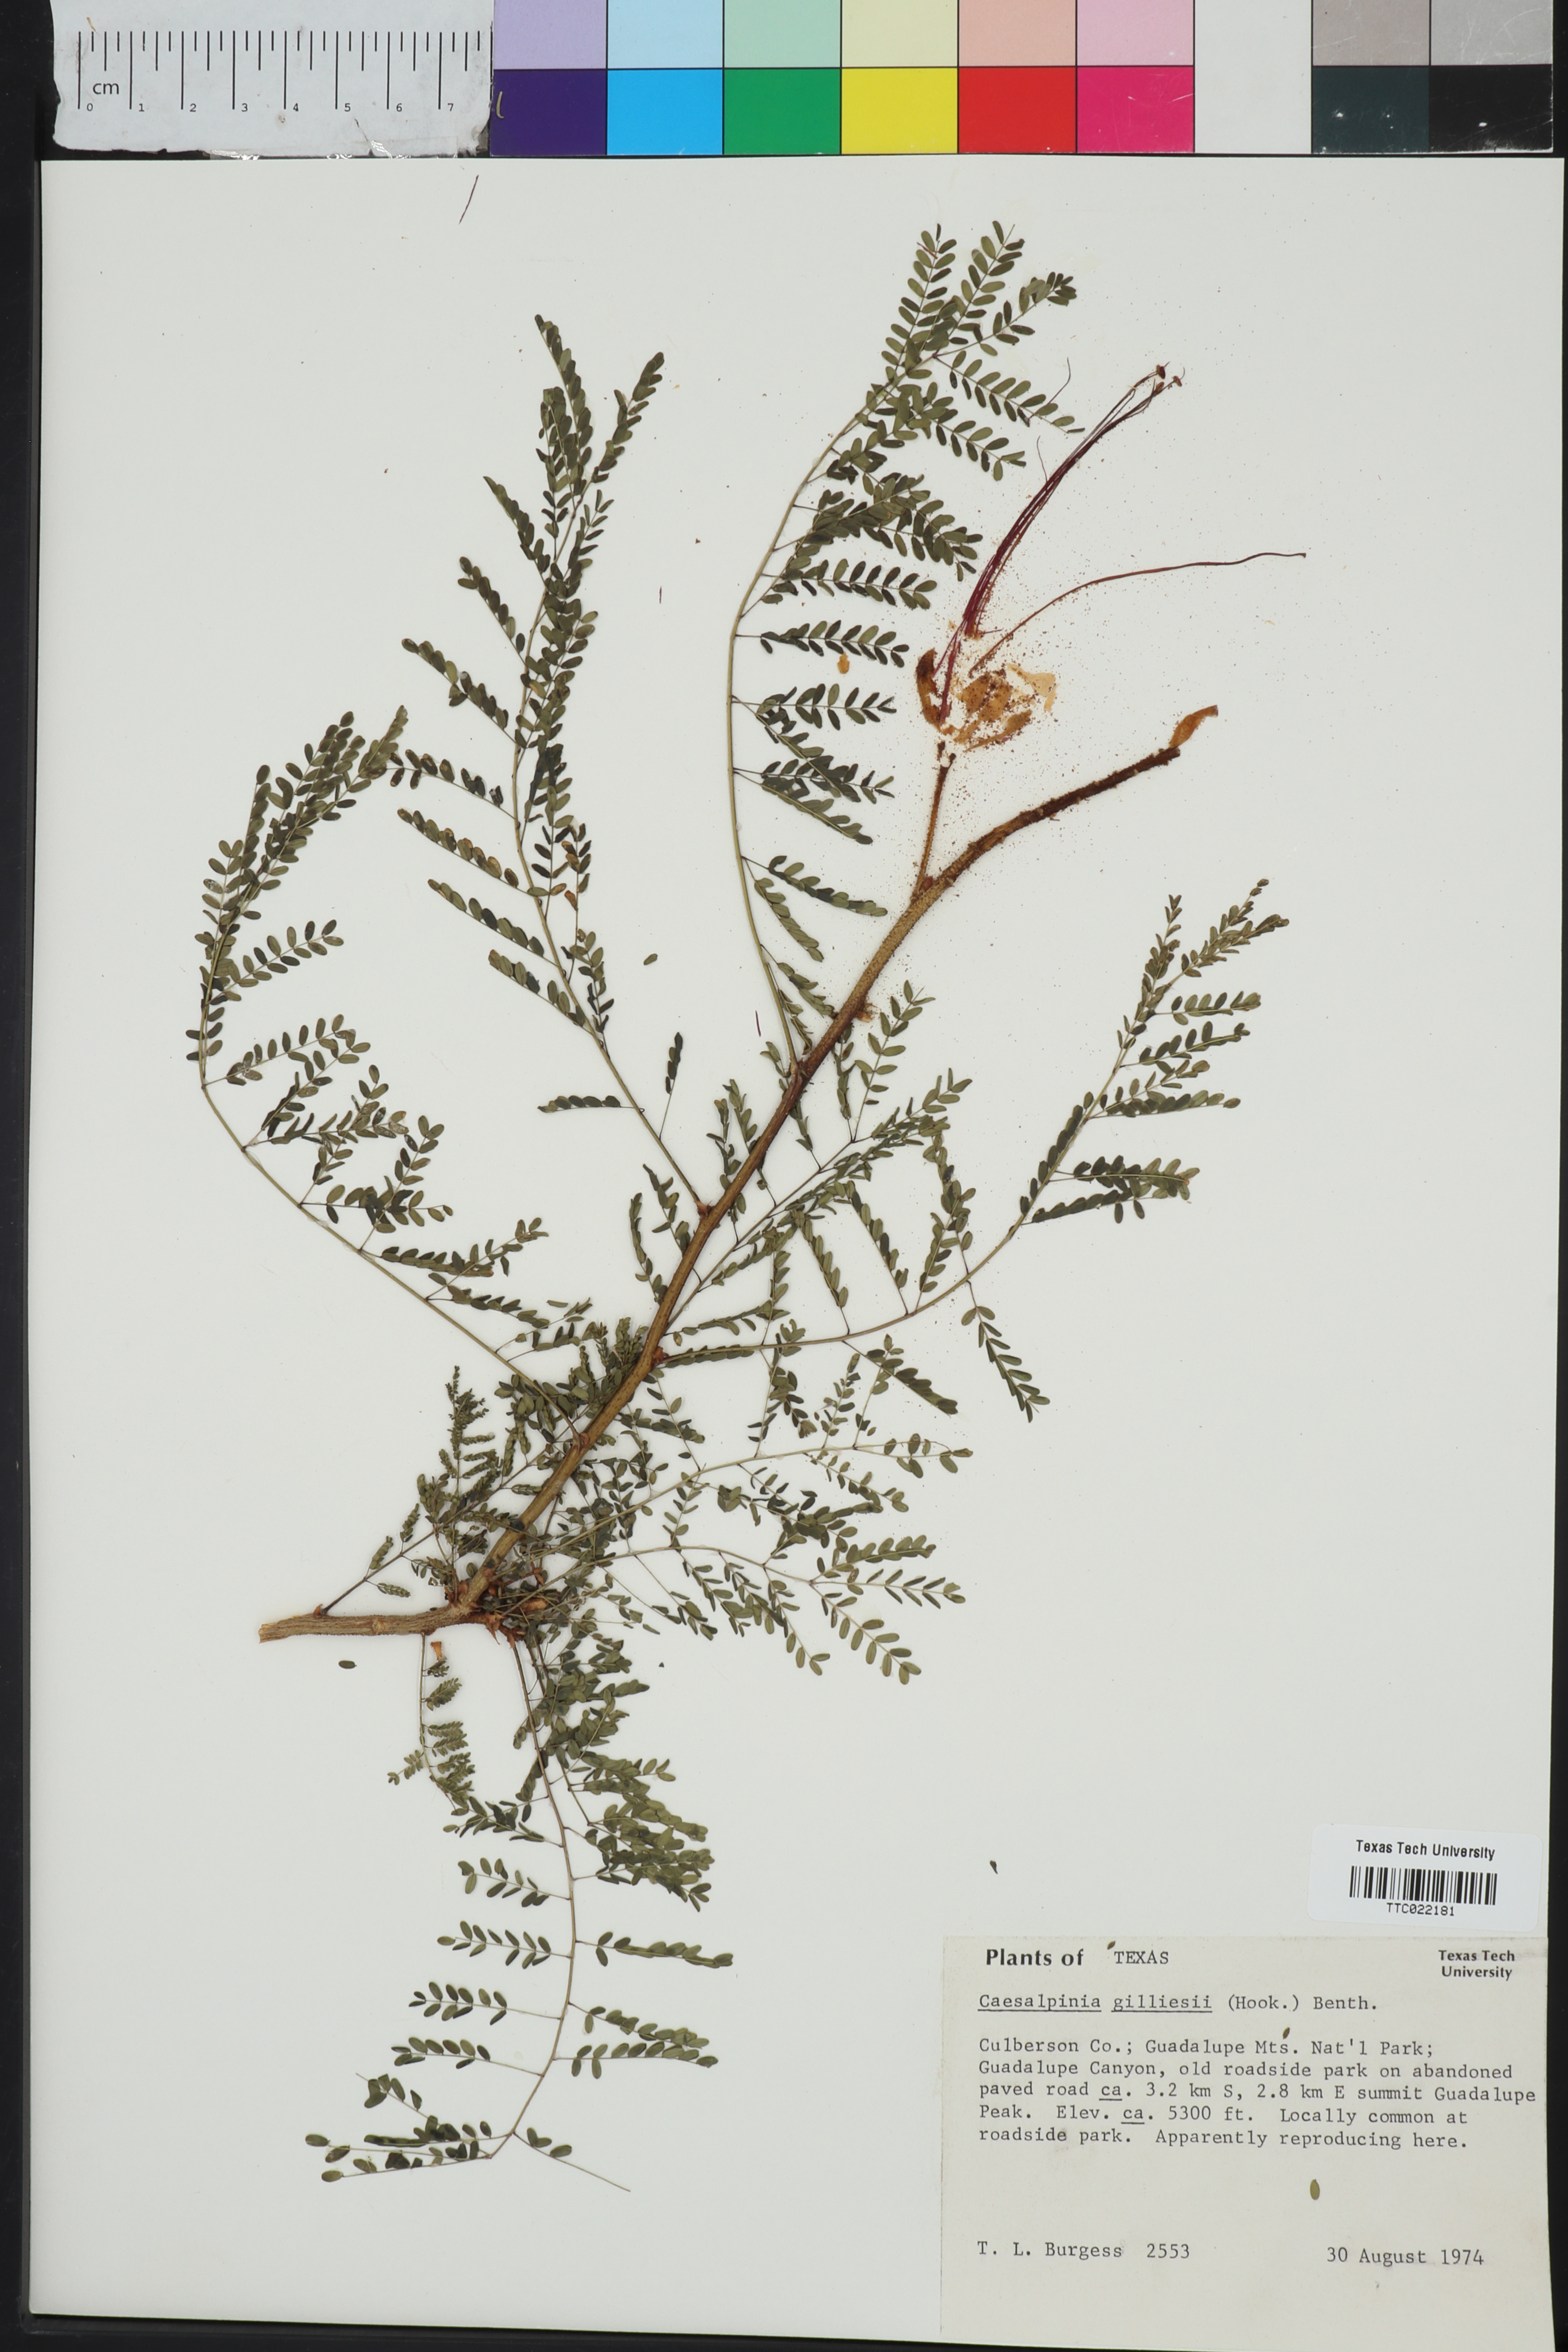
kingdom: Plantae
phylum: Tracheophyta
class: Magnoliopsida
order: Fabales
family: Fabaceae
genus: Erythrostemon
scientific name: Erythrostemon gilliesii
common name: Bird-of-paradise shrub
